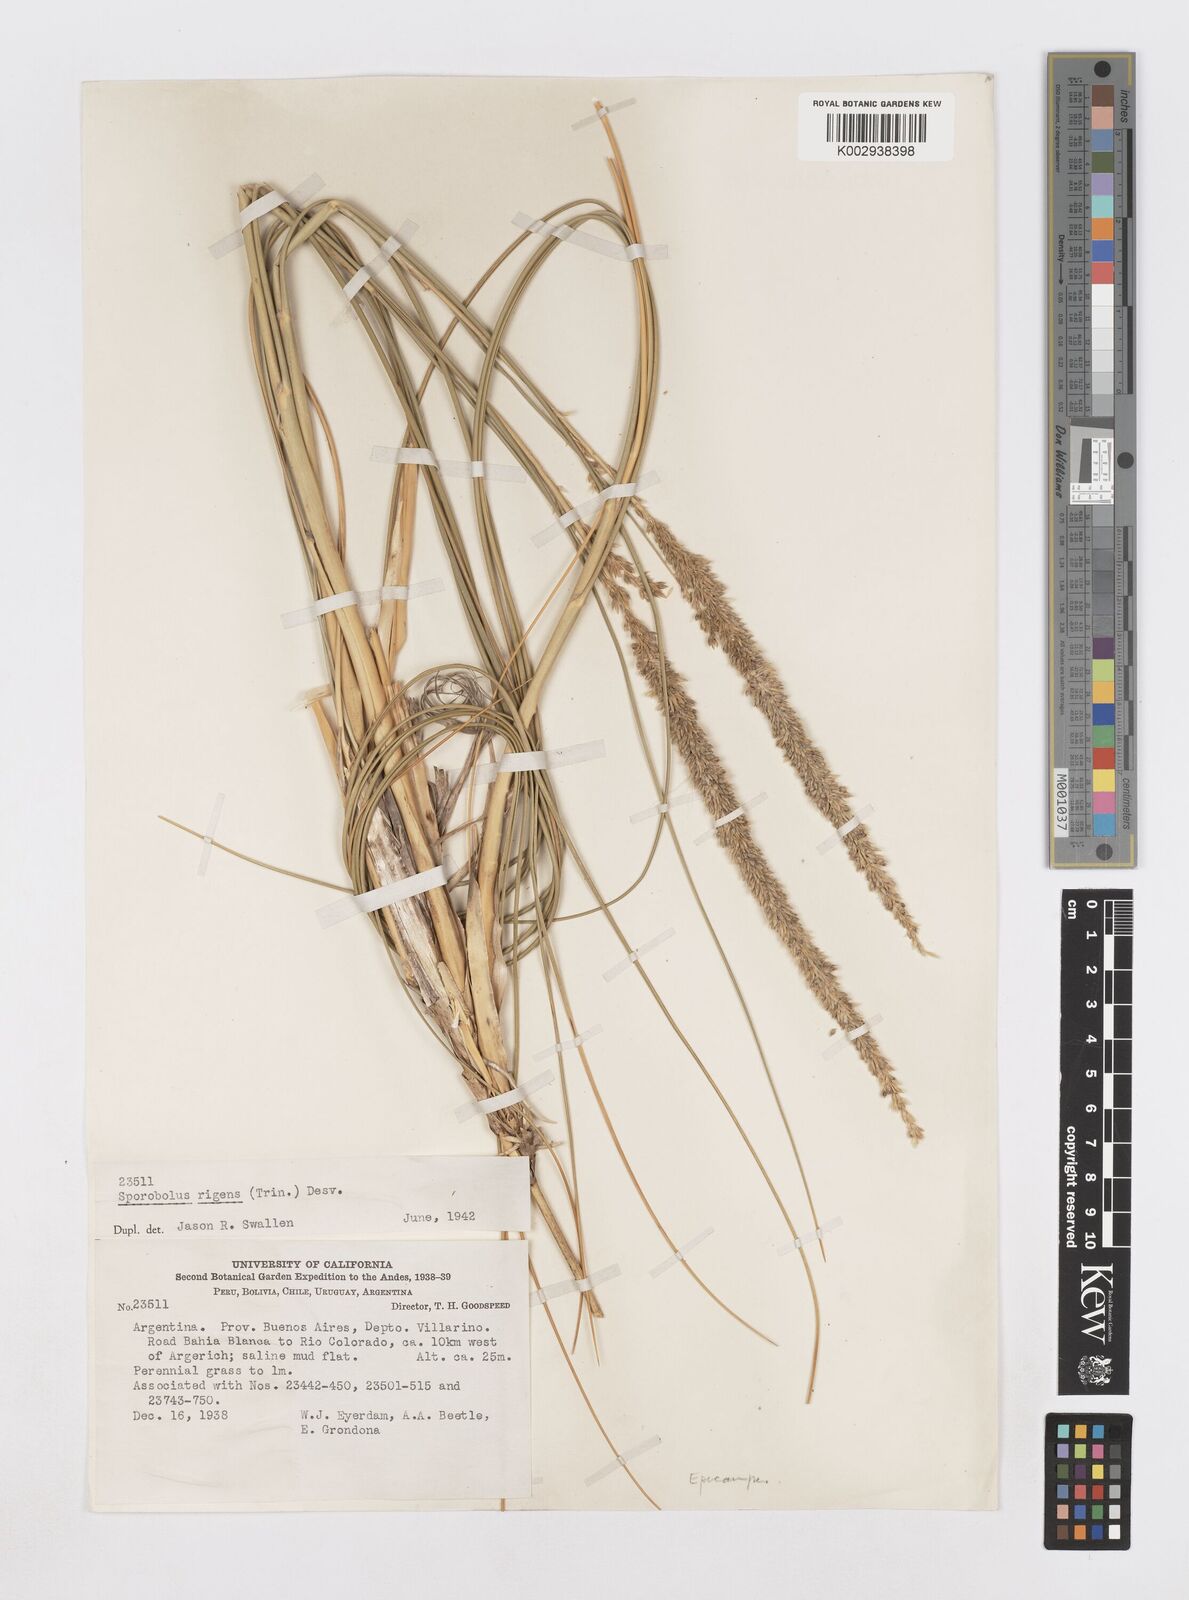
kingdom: Plantae
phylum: Tracheophyta
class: Liliopsida
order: Poales
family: Poaceae
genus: Sporobolus
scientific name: Sporobolus rigens
